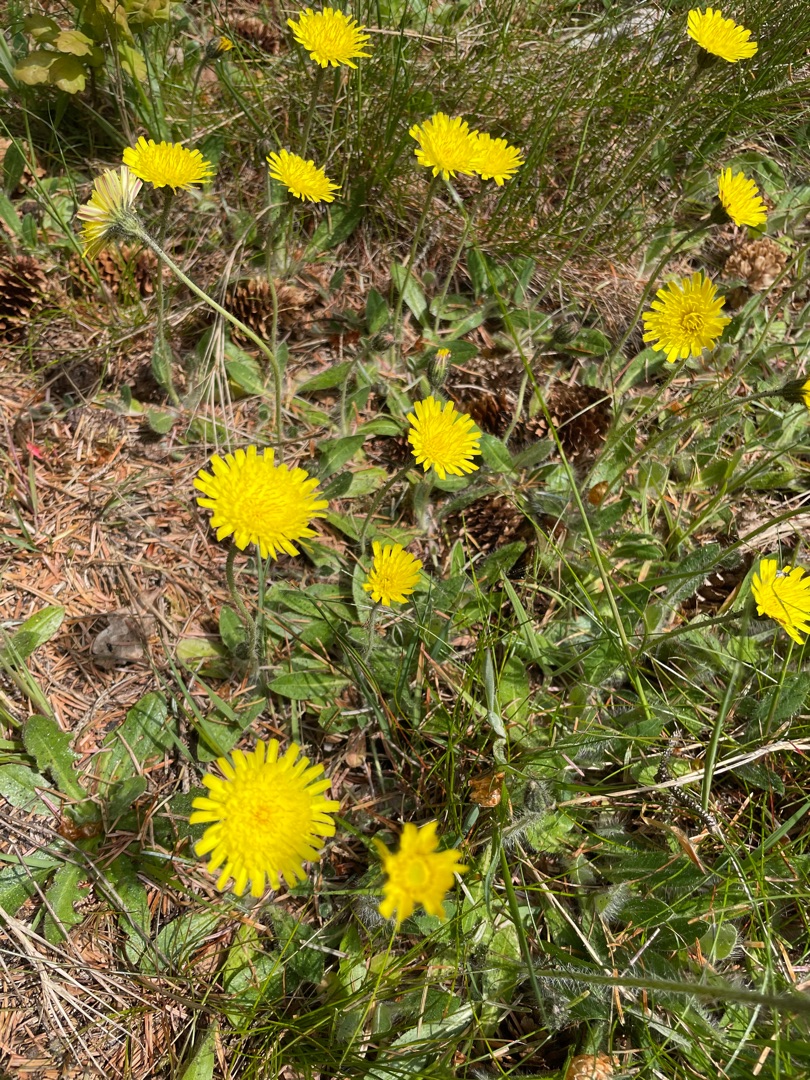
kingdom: Plantae
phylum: Tracheophyta
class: Magnoliopsida
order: Asterales
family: Asteraceae
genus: Pilosella
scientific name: Pilosella officinarum
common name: Håret høgeurt
